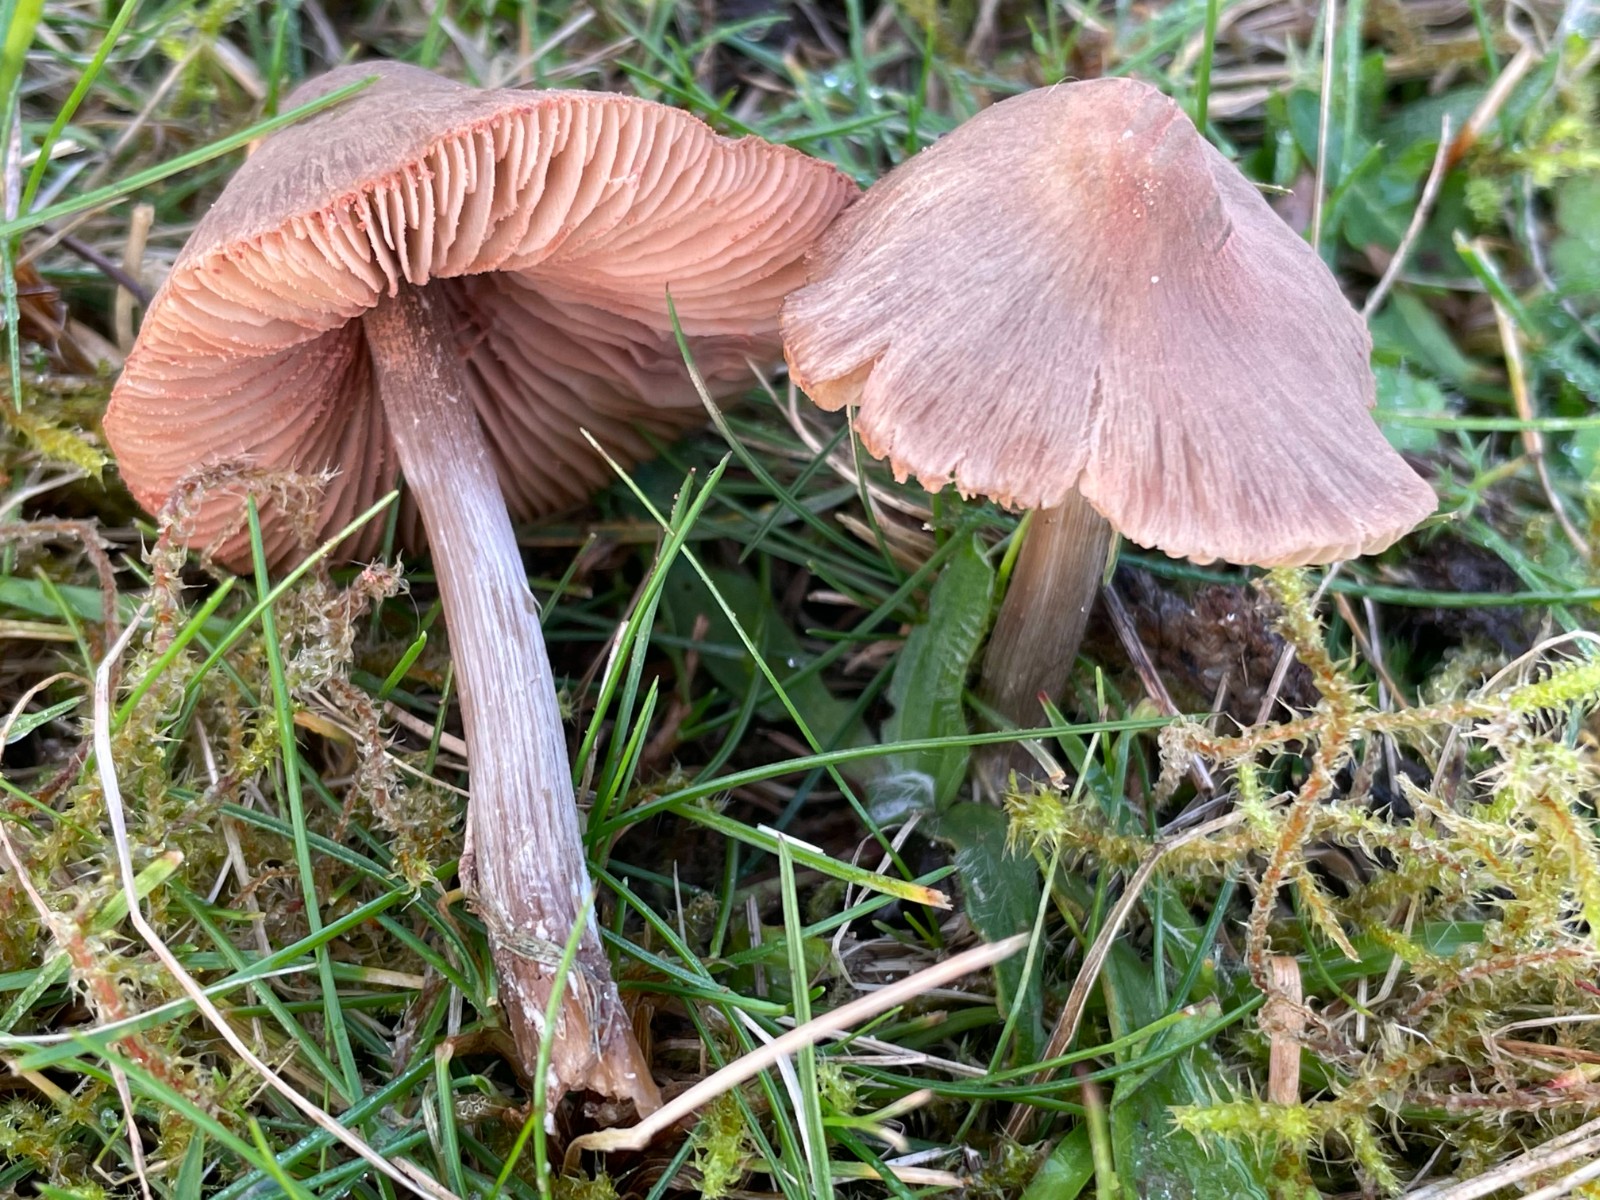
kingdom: Fungi
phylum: Basidiomycota
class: Agaricomycetes
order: Agaricales
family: Entolomataceae
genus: Entoloma
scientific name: Entoloma conferendum
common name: stjernesporet rødblad
